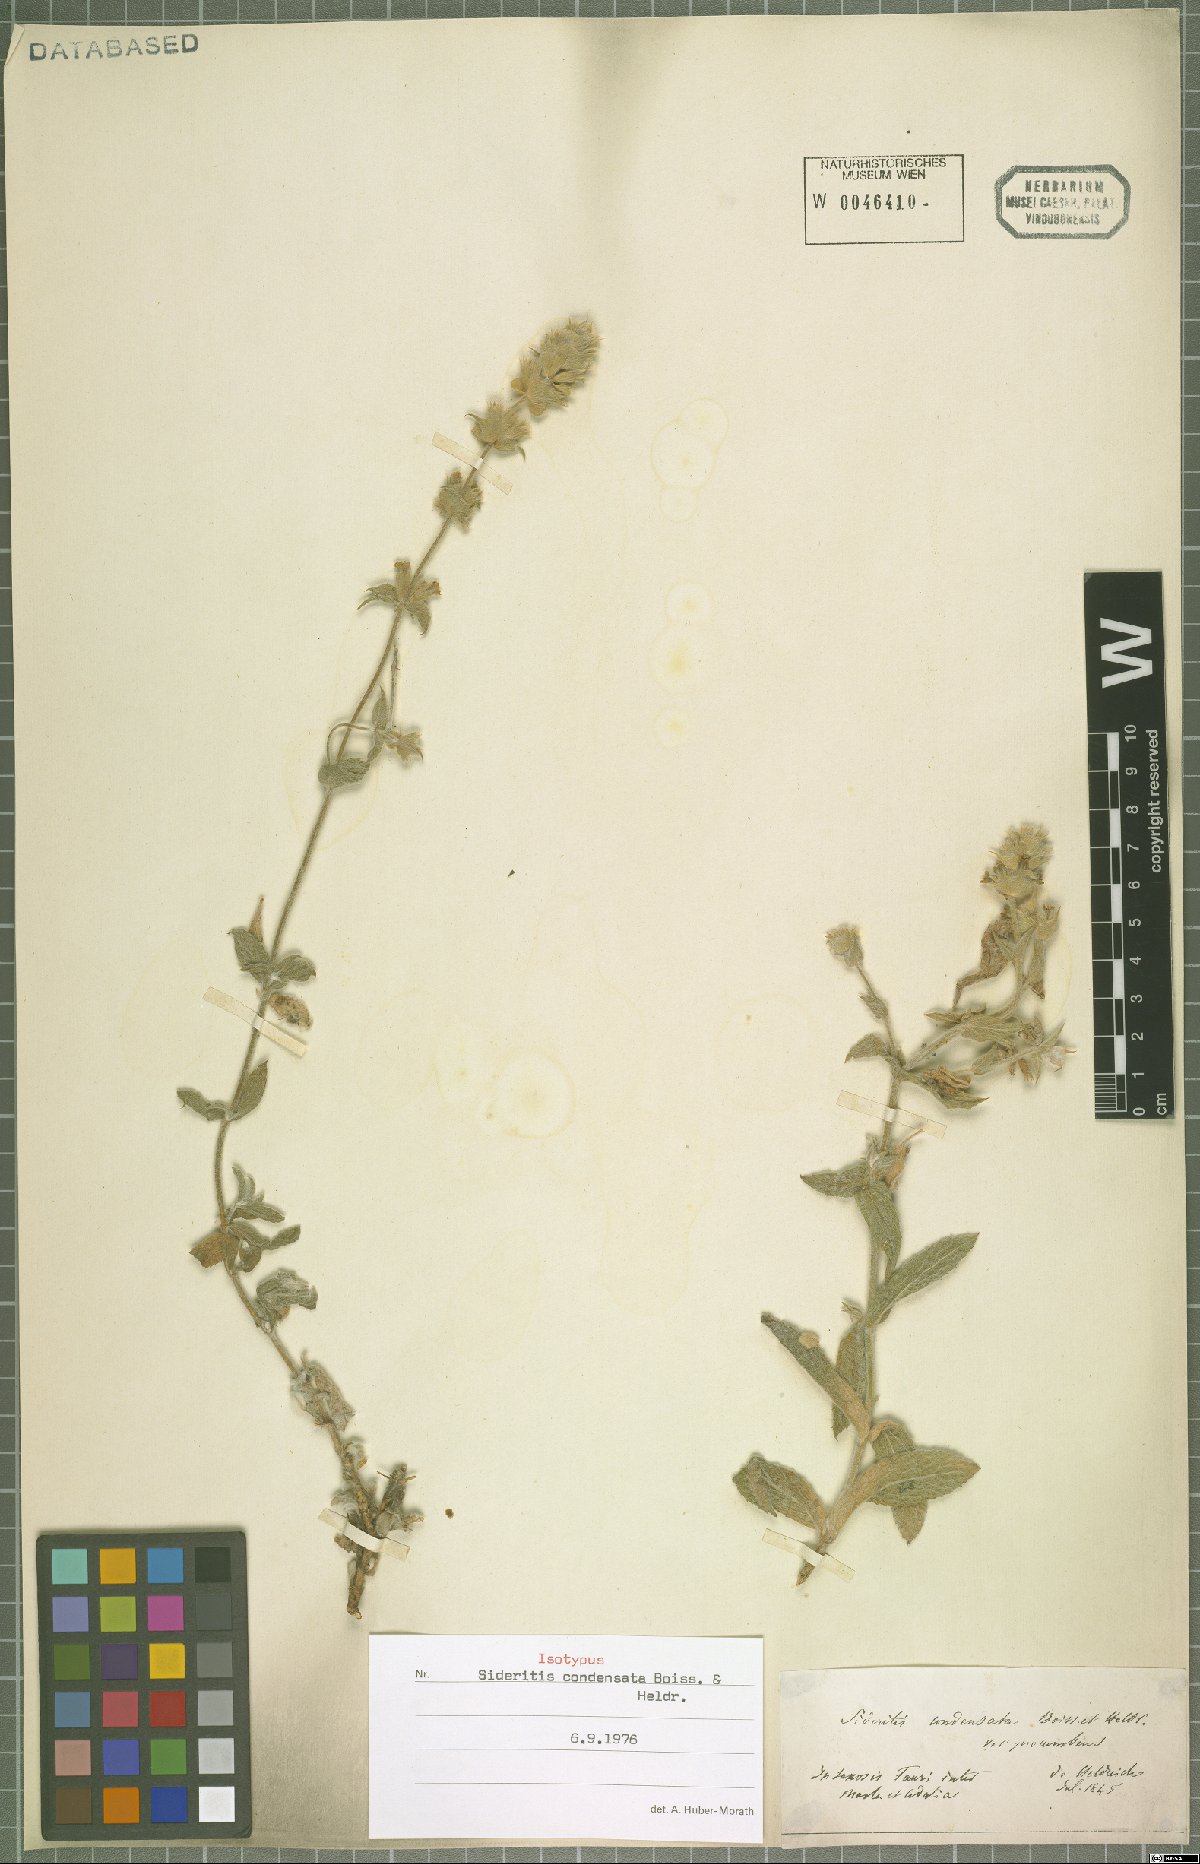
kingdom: Plantae
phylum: Tracheophyta
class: Magnoliopsida
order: Lamiales
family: Lamiaceae
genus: Sideritis
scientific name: Sideritis condensata
